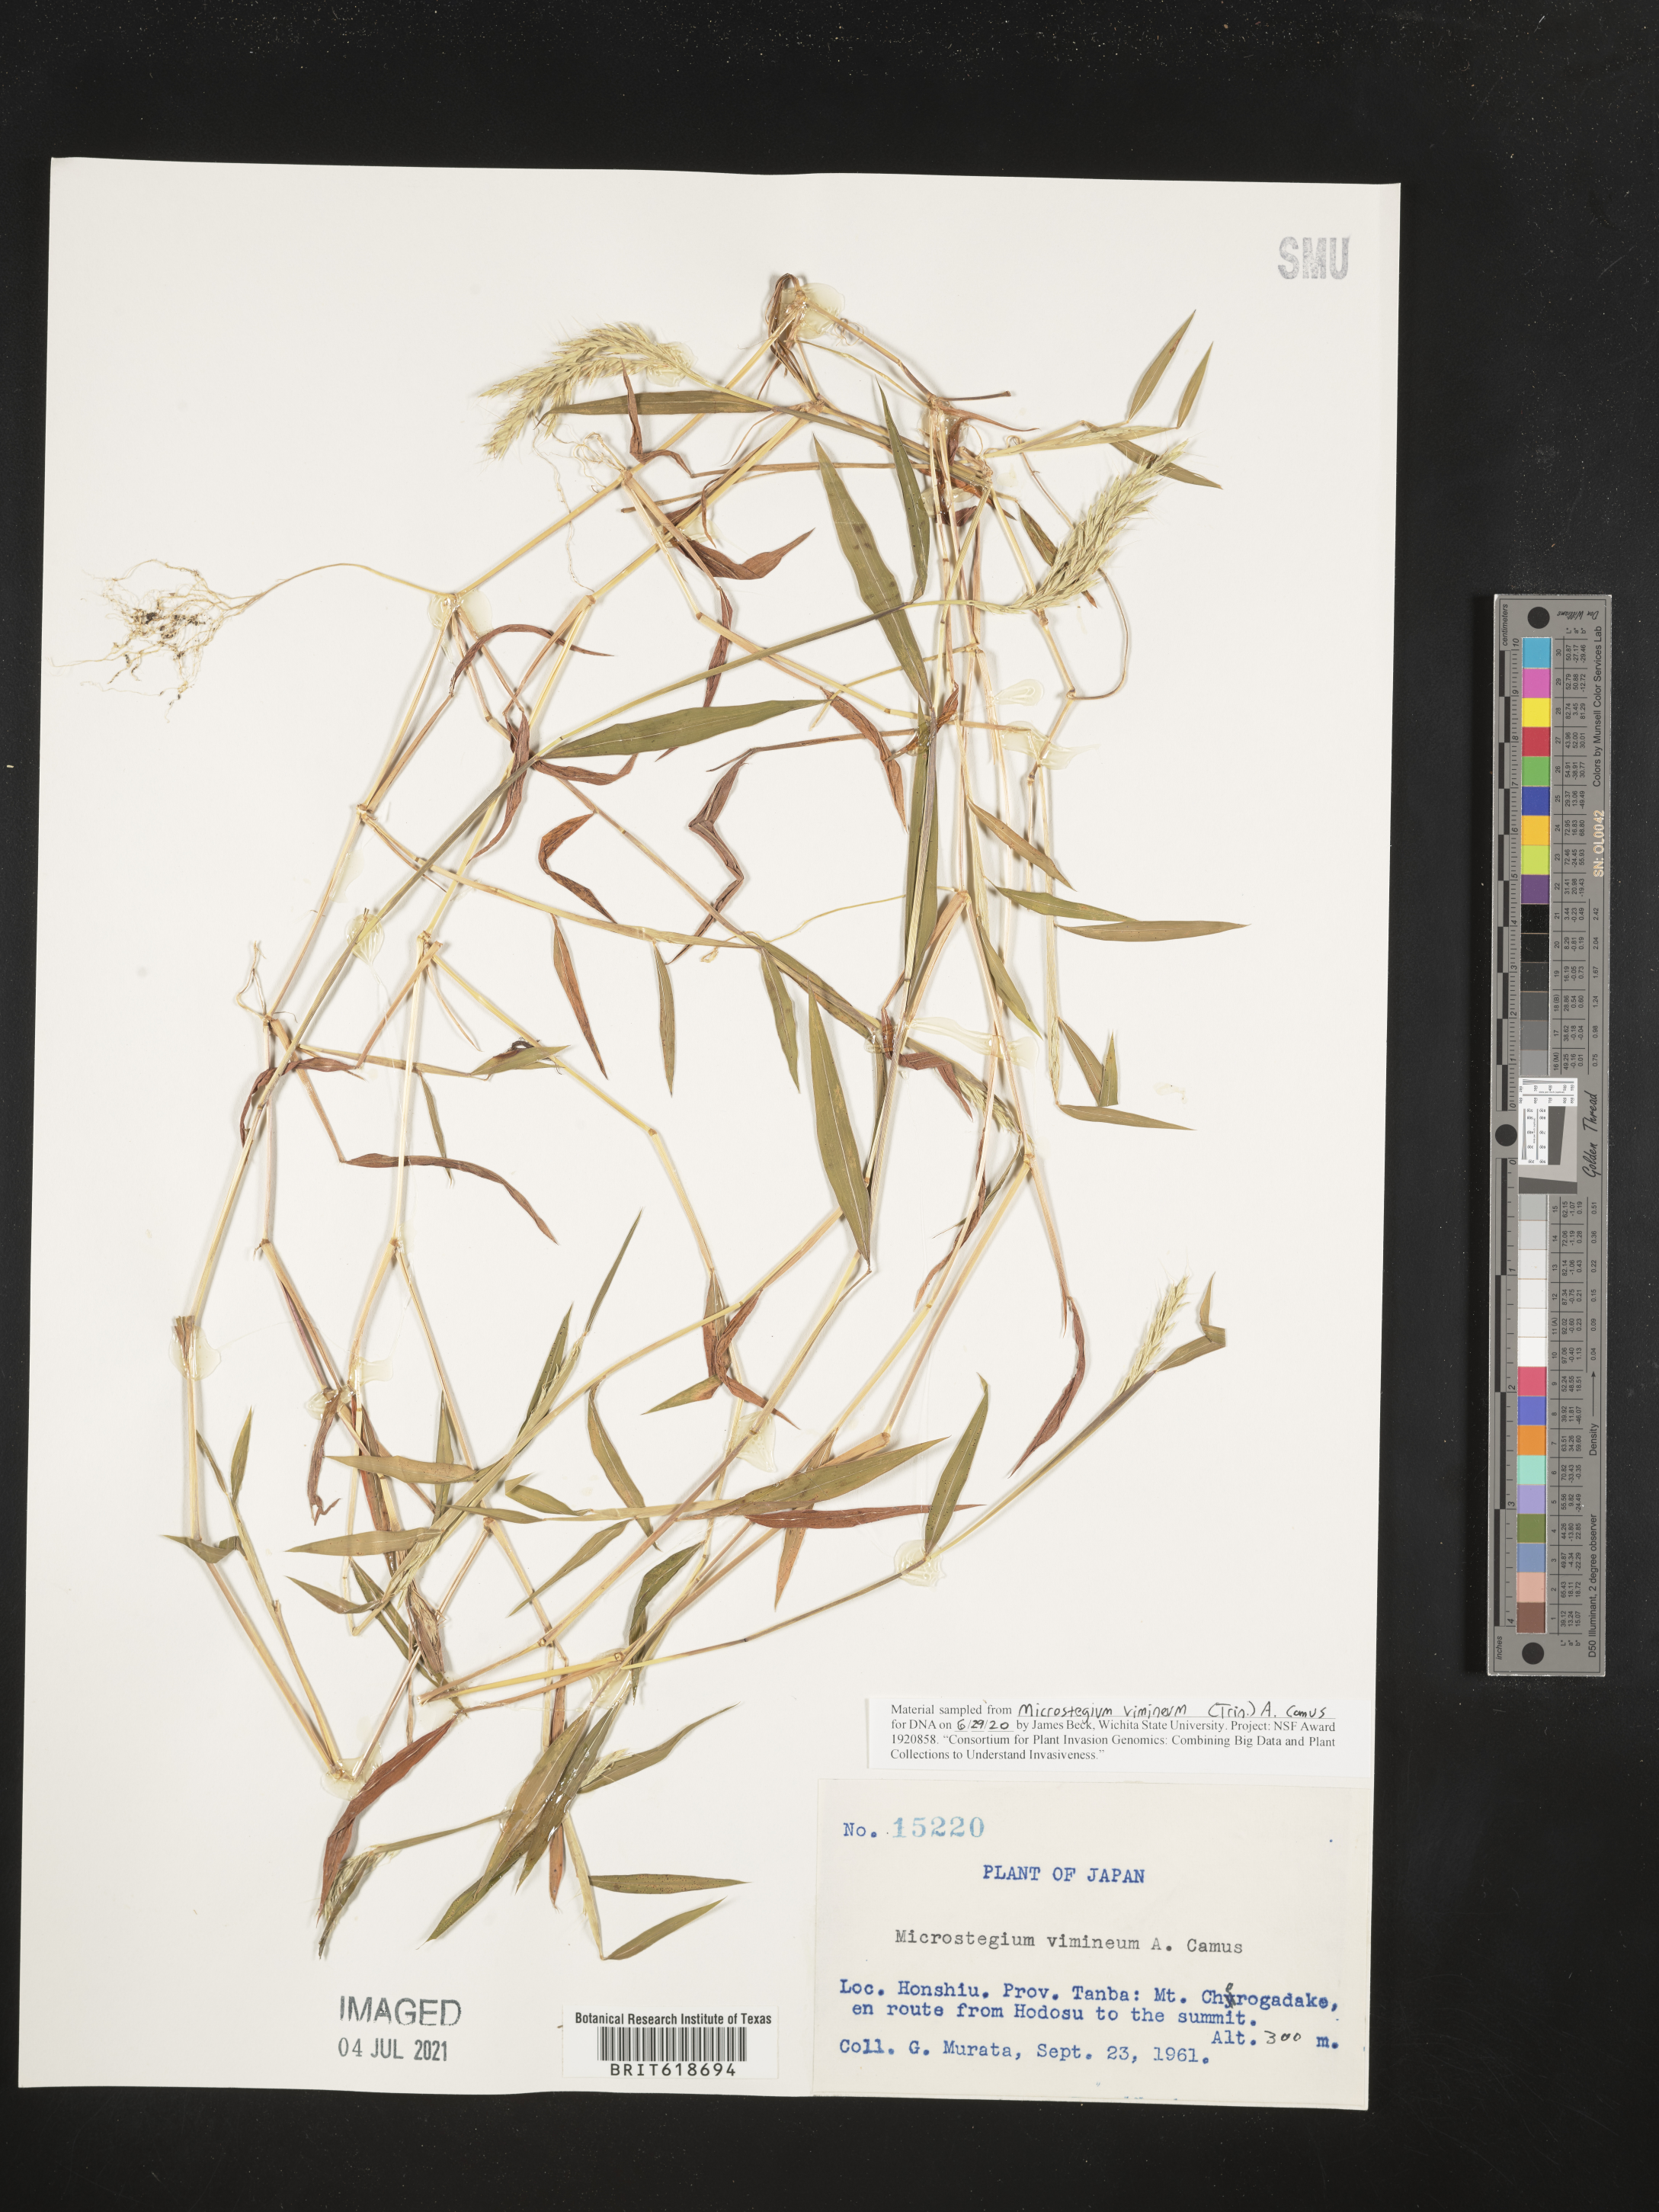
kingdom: Plantae
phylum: Tracheophyta
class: Liliopsida
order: Poales
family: Poaceae
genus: Microstegium
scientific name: Microstegium vimineum
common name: Japanese stiltgrass
